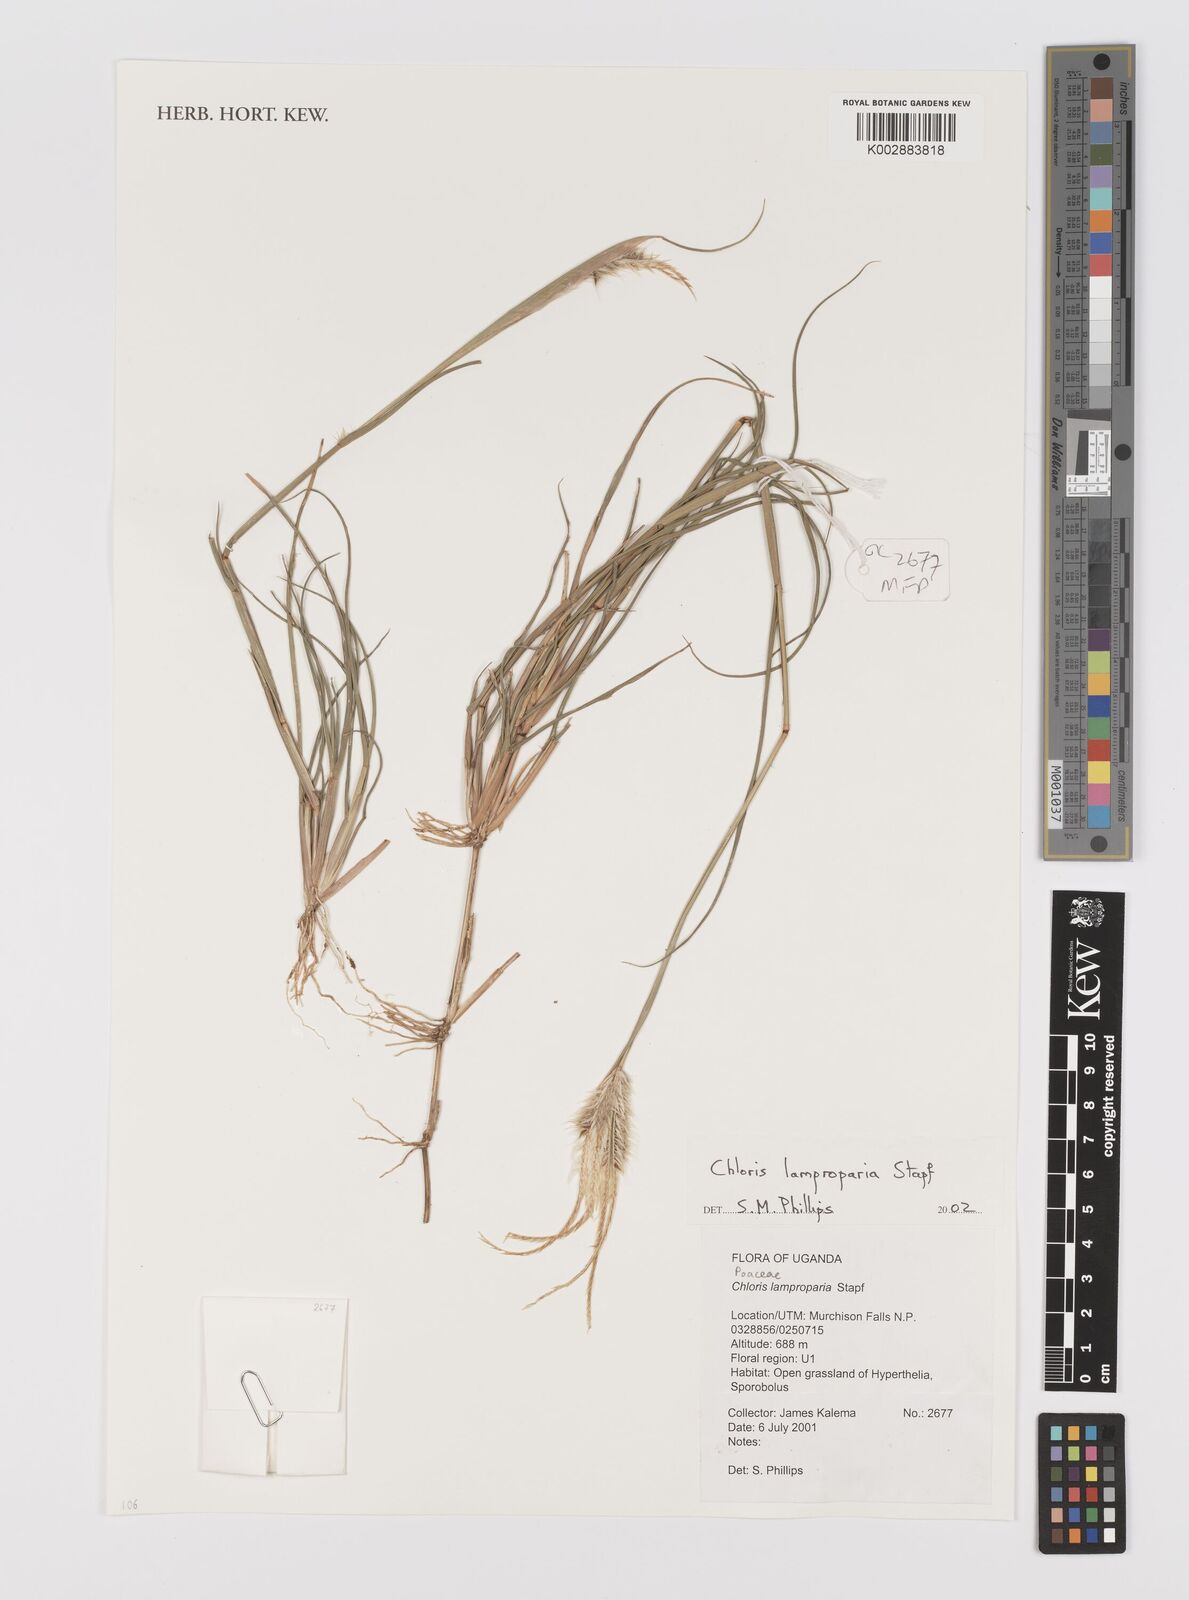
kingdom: Plantae
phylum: Tracheophyta
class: Liliopsida
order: Poales
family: Poaceae
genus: Stapfochloa
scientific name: Stapfochloa lamproparia
